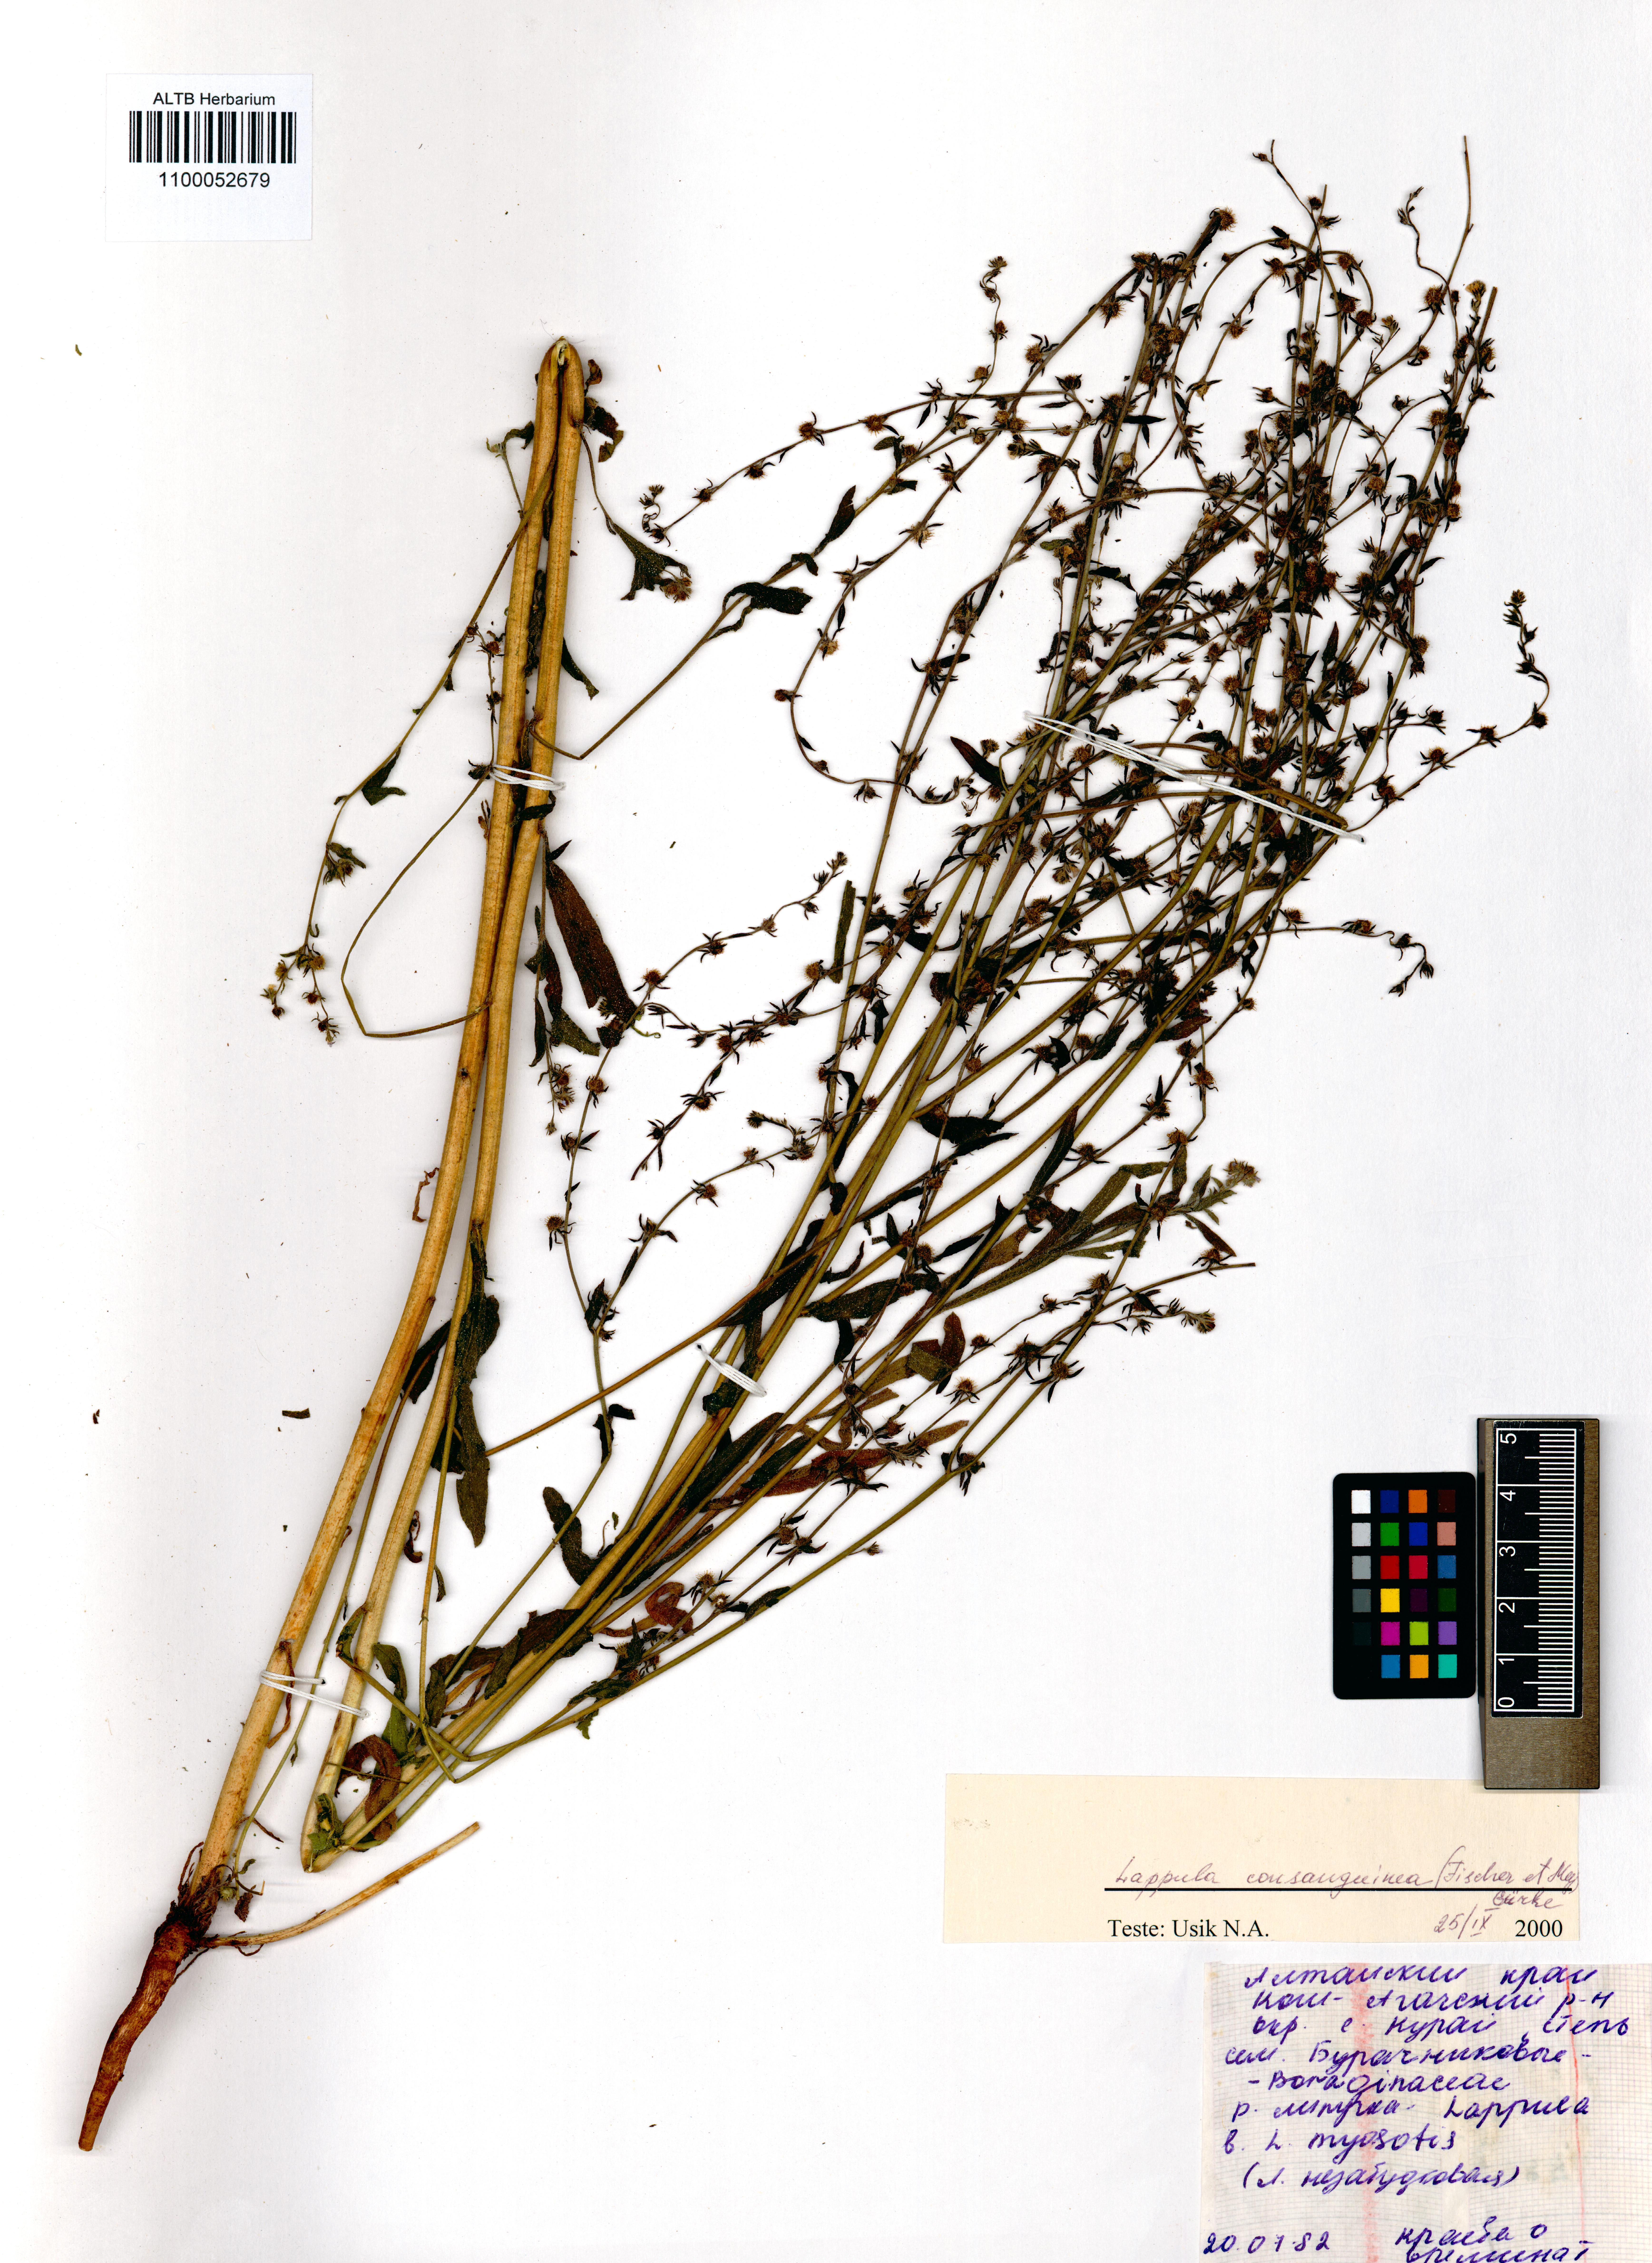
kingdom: Plantae
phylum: Tracheophyta
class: Magnoliopsida
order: Boraginales
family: Boraginaceae
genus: Lappula
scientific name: Lappula squarrosa
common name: European stickseed
